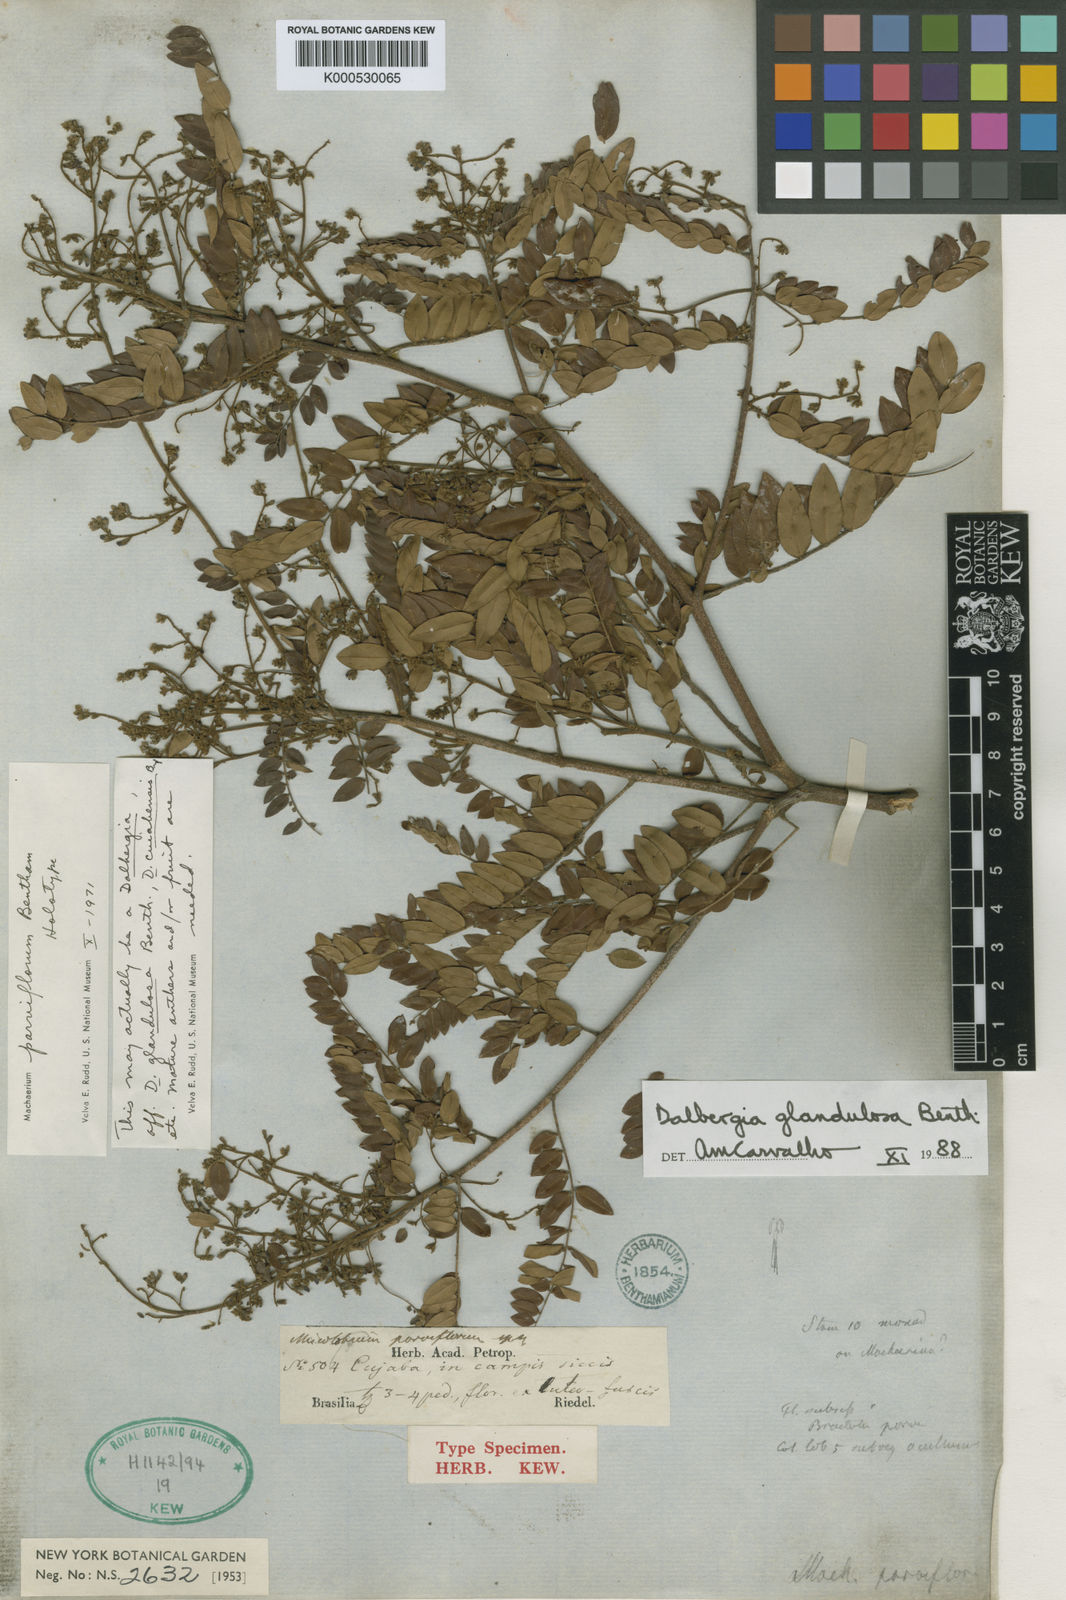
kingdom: Plantae
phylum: Tracheophyta
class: Magnoliopsida
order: Fabales
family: Fabaceae
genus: Dalbergia
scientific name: Dalbergia glandulosa
